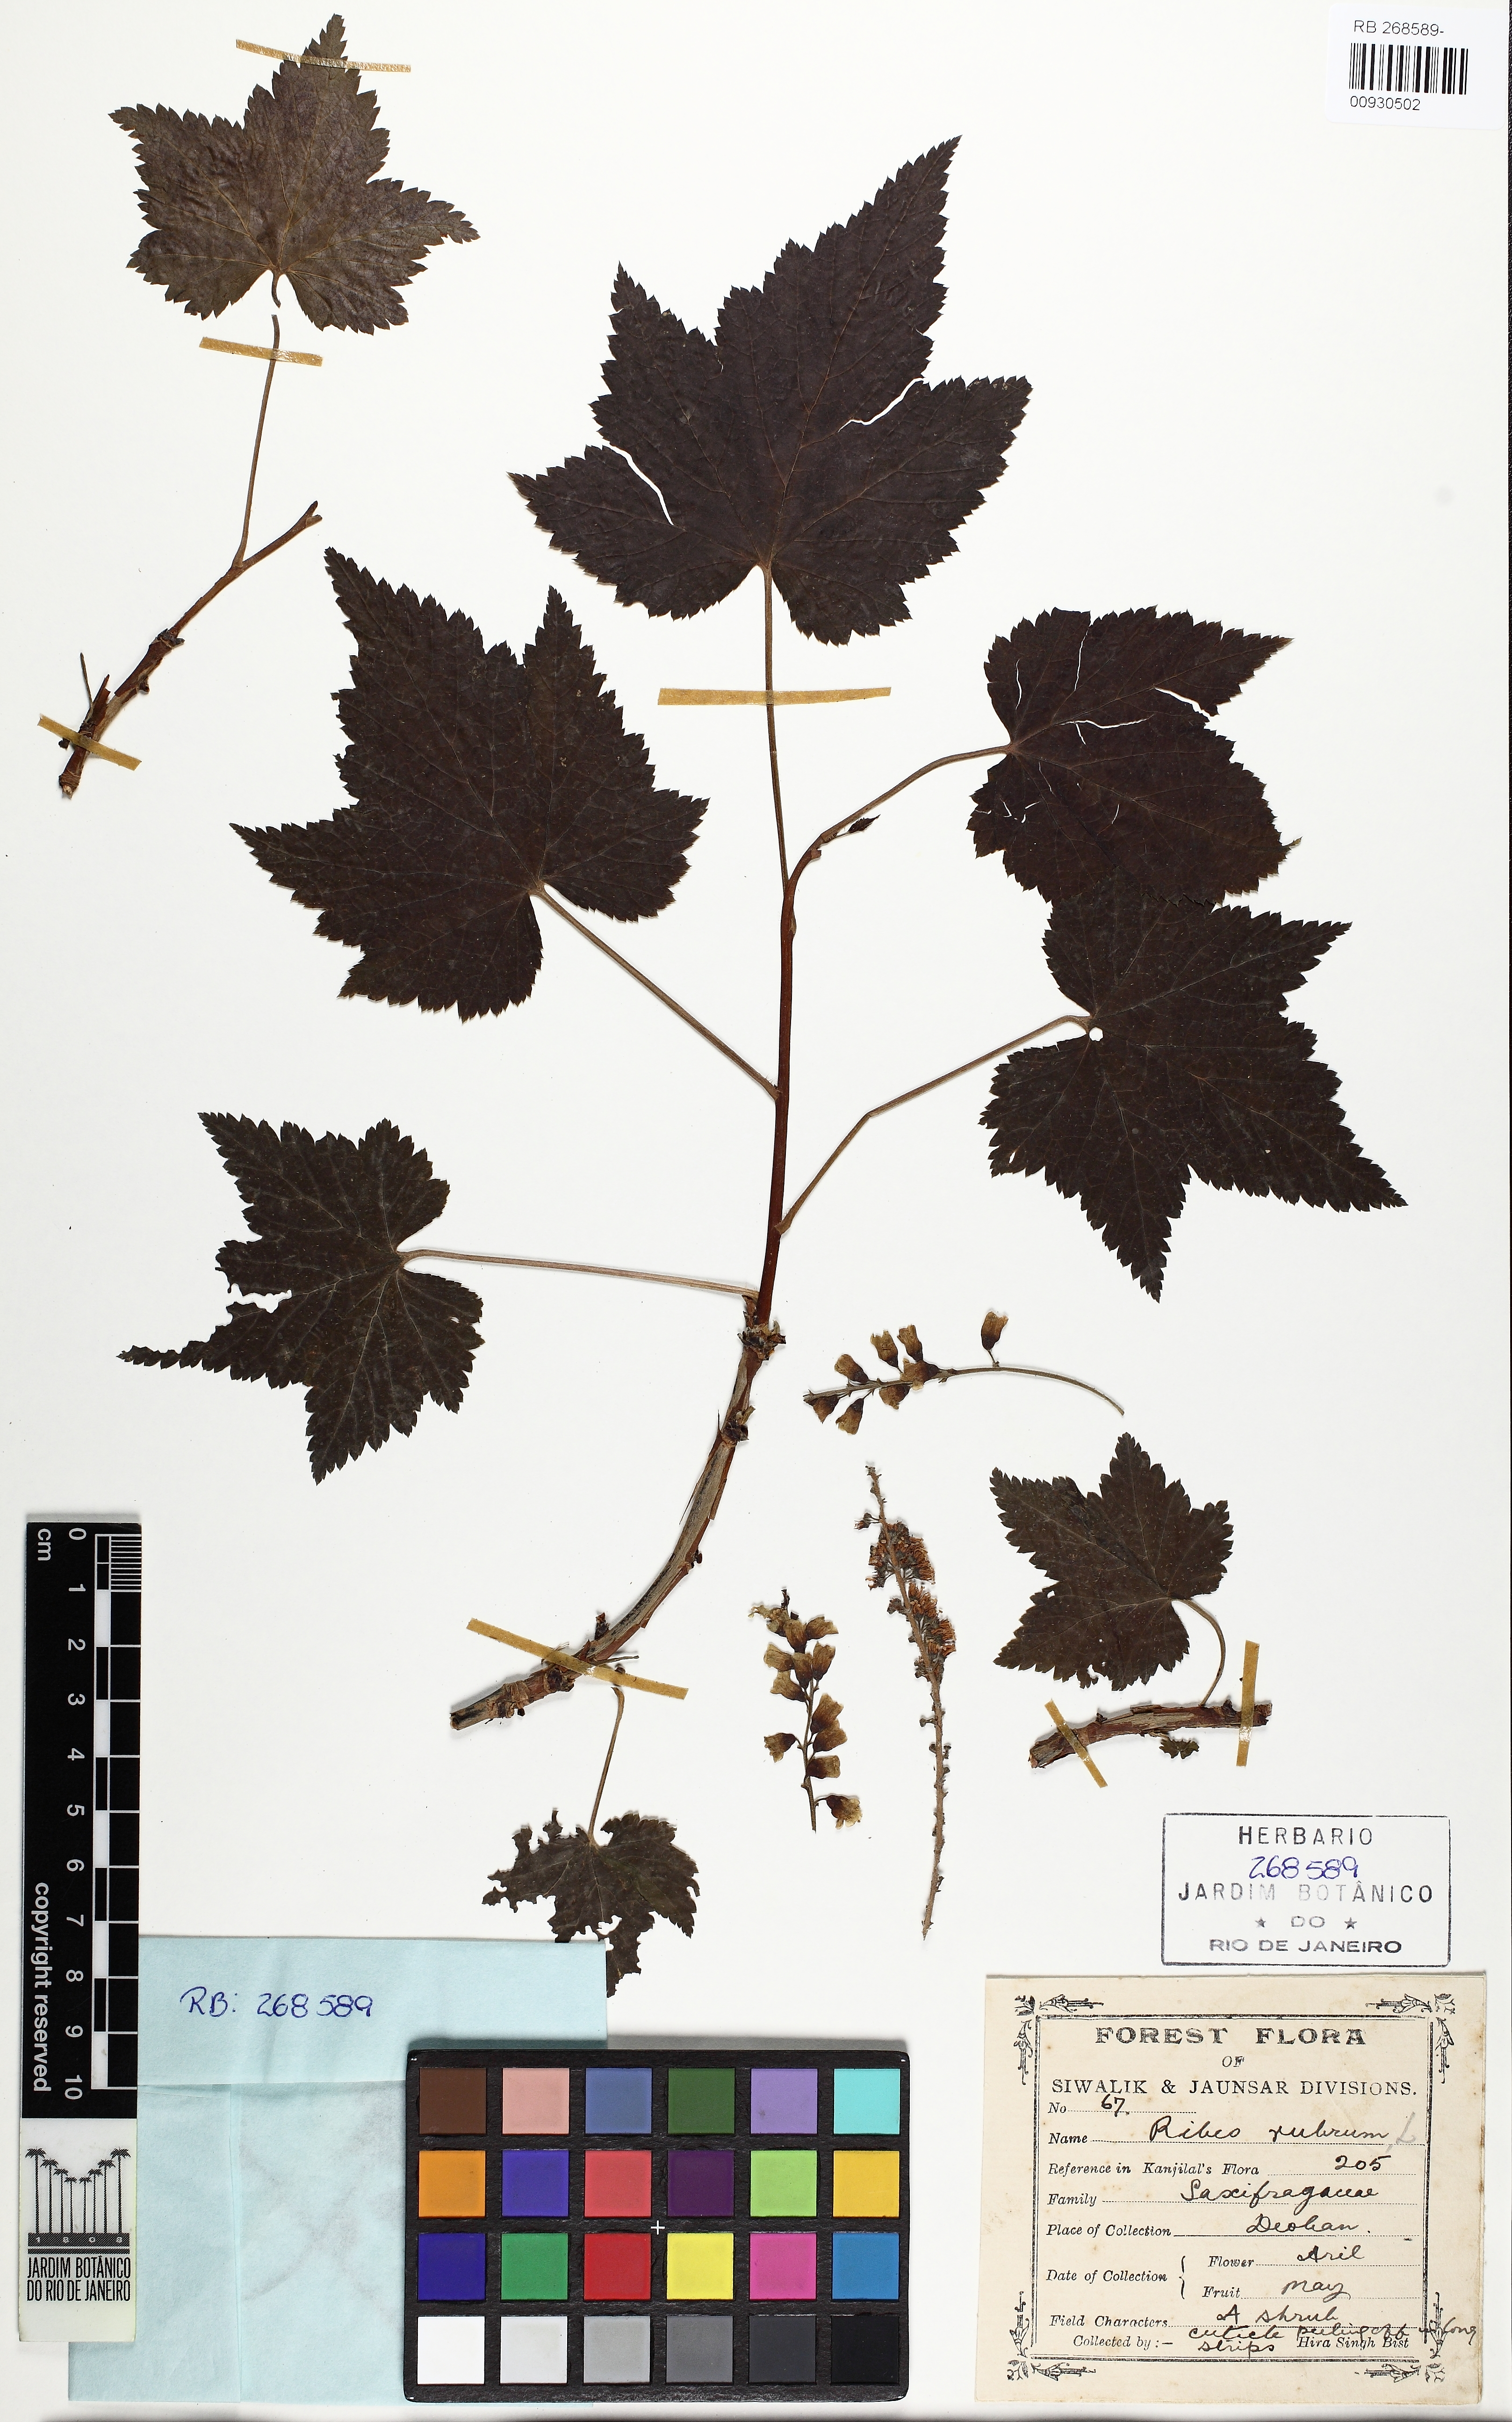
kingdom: Plantae
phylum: Tracheophyta
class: Magnoliopsida
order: Saxifragales
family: Grossulariaceae
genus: Ribes
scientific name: Ribes rubrum
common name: Red currant
